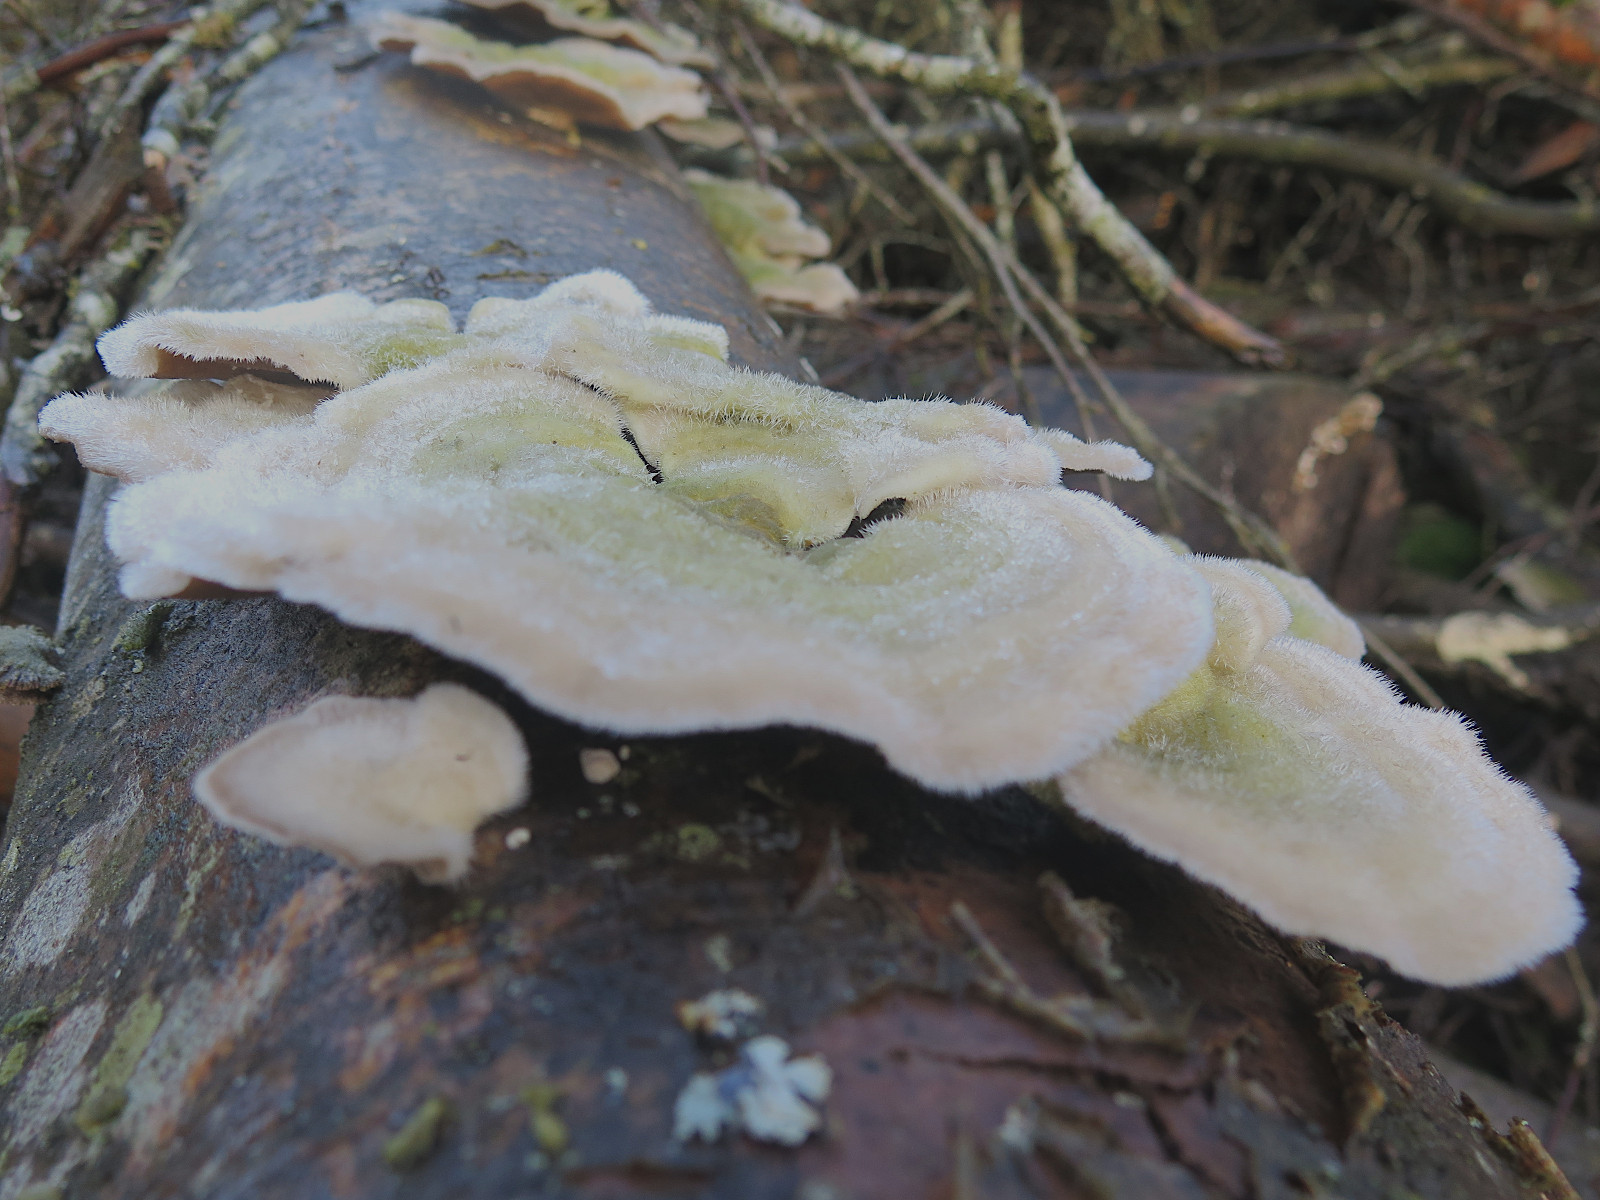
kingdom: Fungi
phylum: Basidiomycota
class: Agaricomycetes
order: Polyporales
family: Polyporaceae
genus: Trametes
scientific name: Trametes hirsuta
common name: håret læderporesvamp
